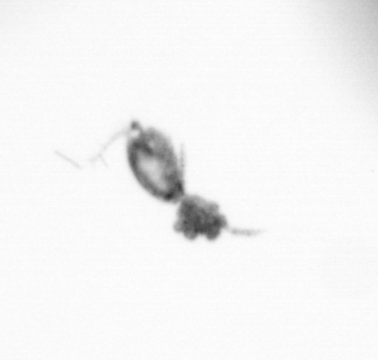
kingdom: Animalia
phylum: Arthropoda
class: Copepoda
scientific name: Copepoda
